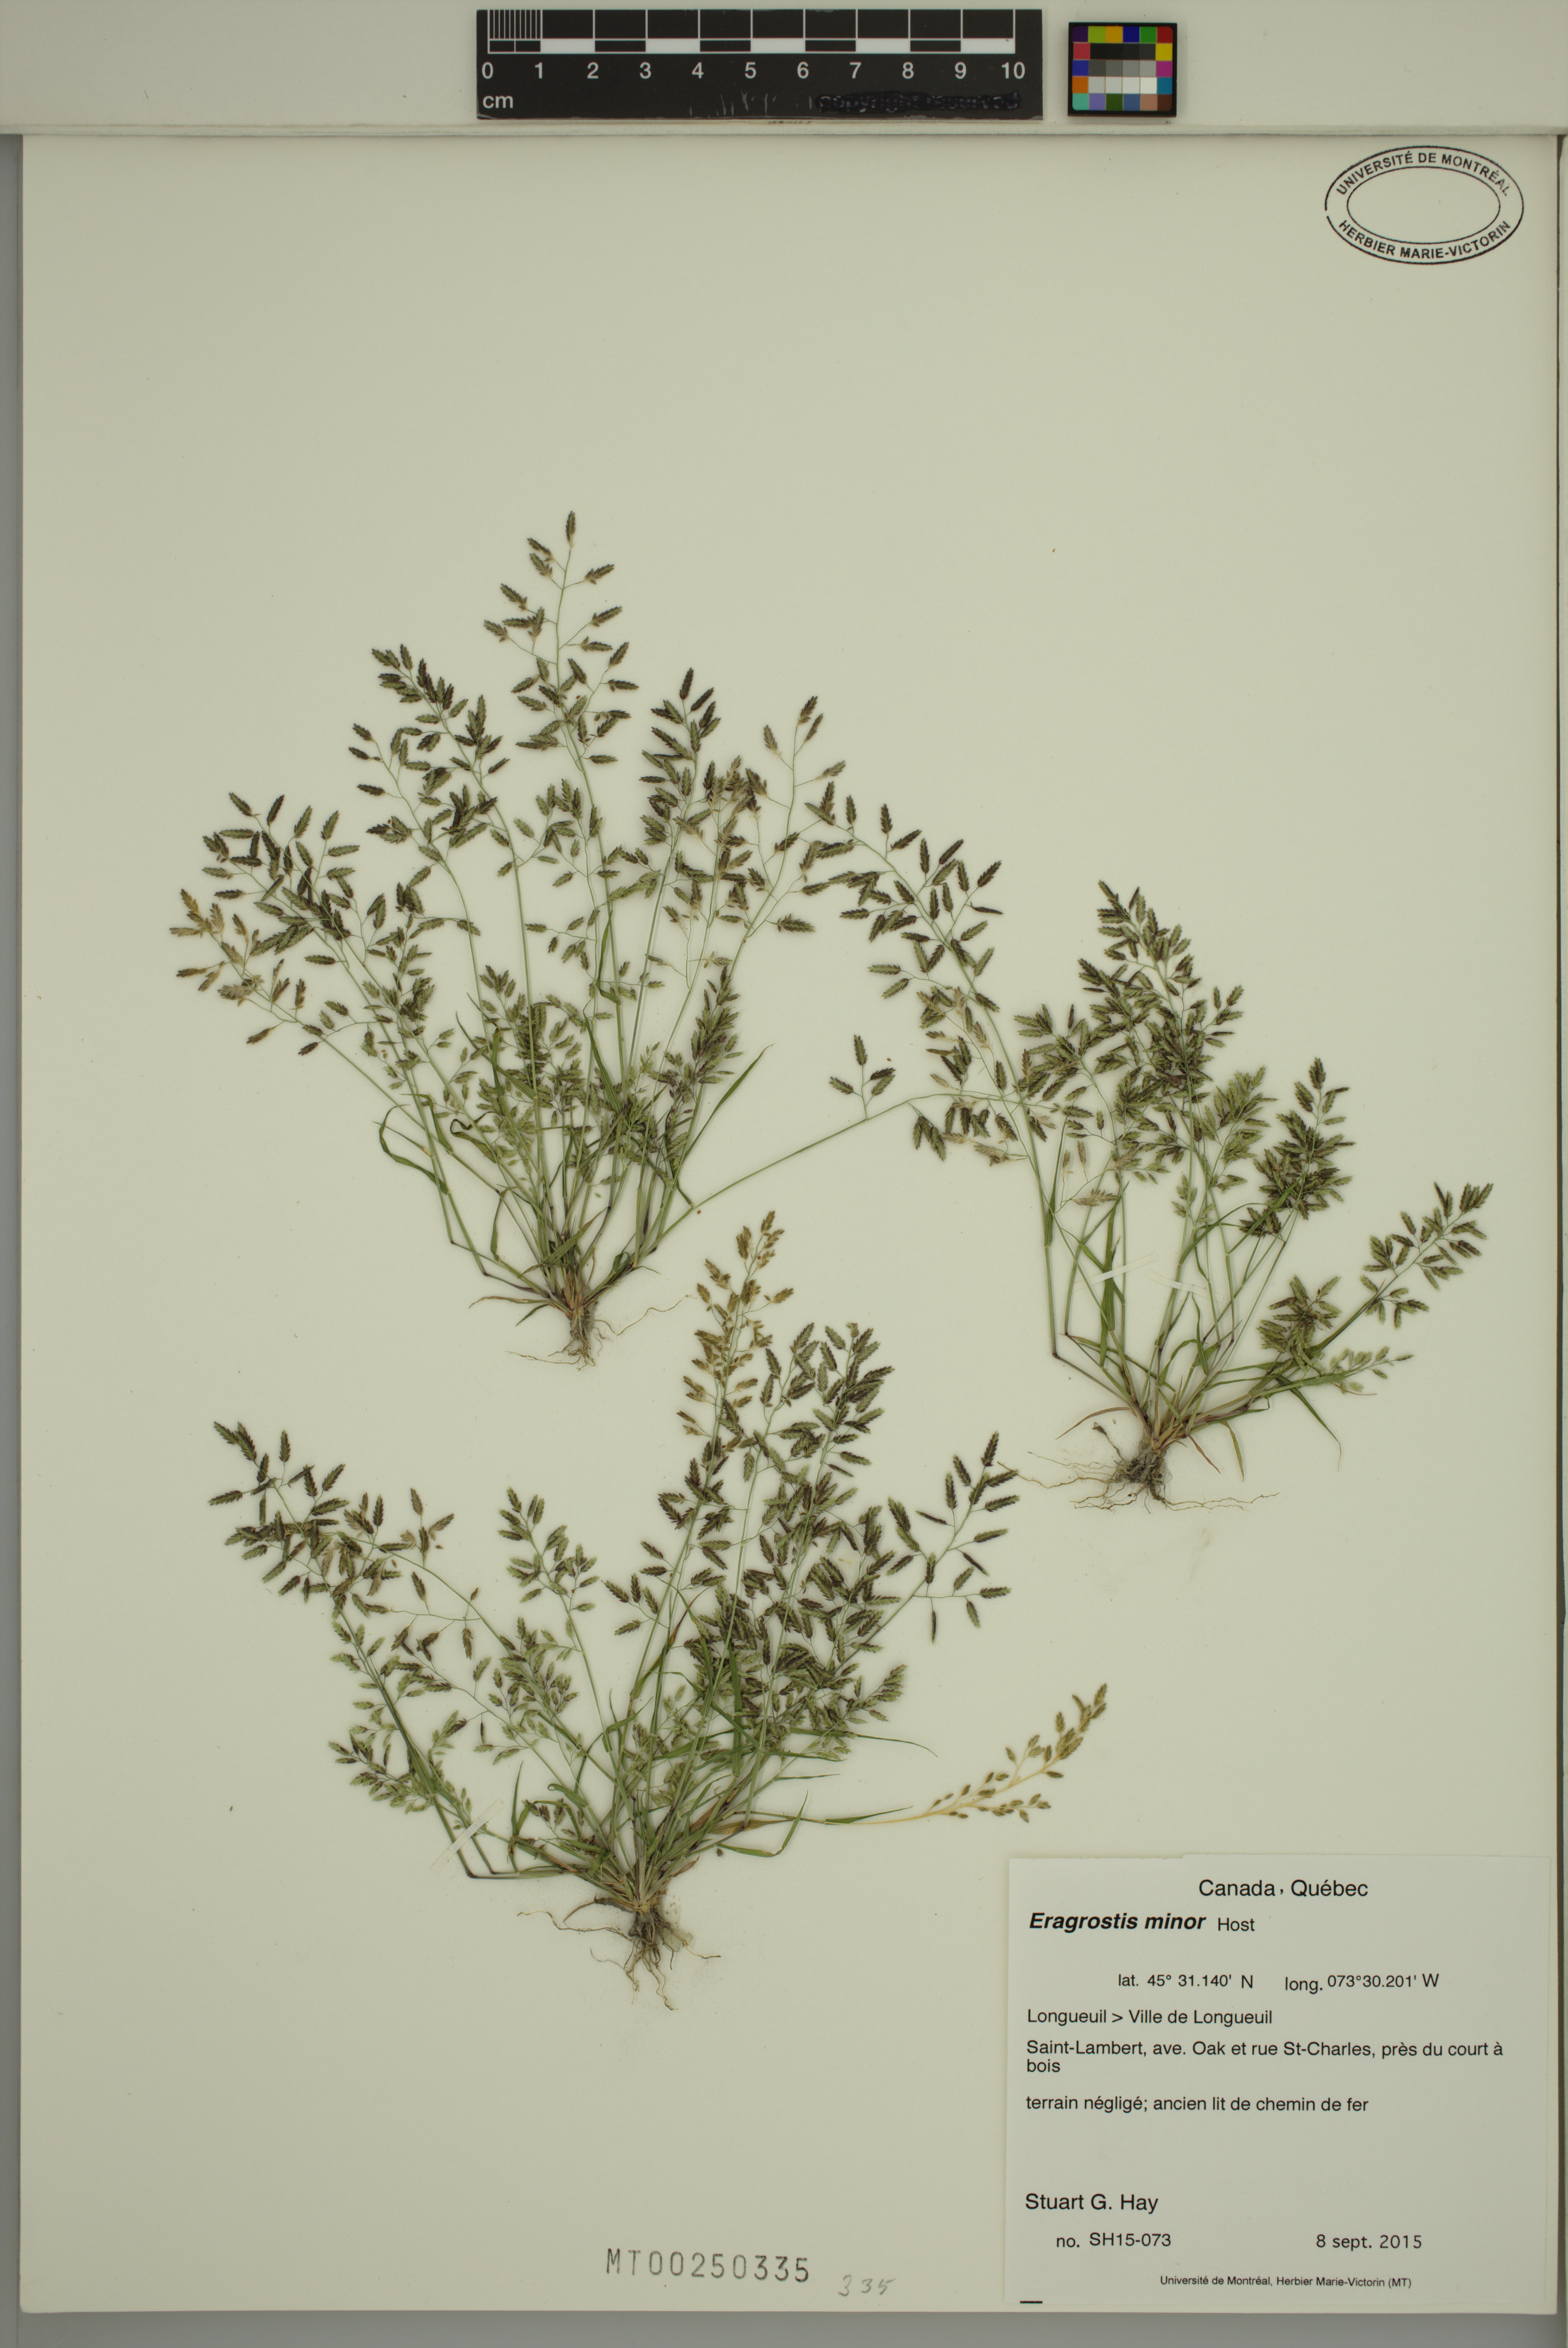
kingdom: Plantae
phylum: Tracheophyta
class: Liliopsida
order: Poales
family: Poaceae
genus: Eragrostis
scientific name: Eragrostis minor
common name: Small love-grass
